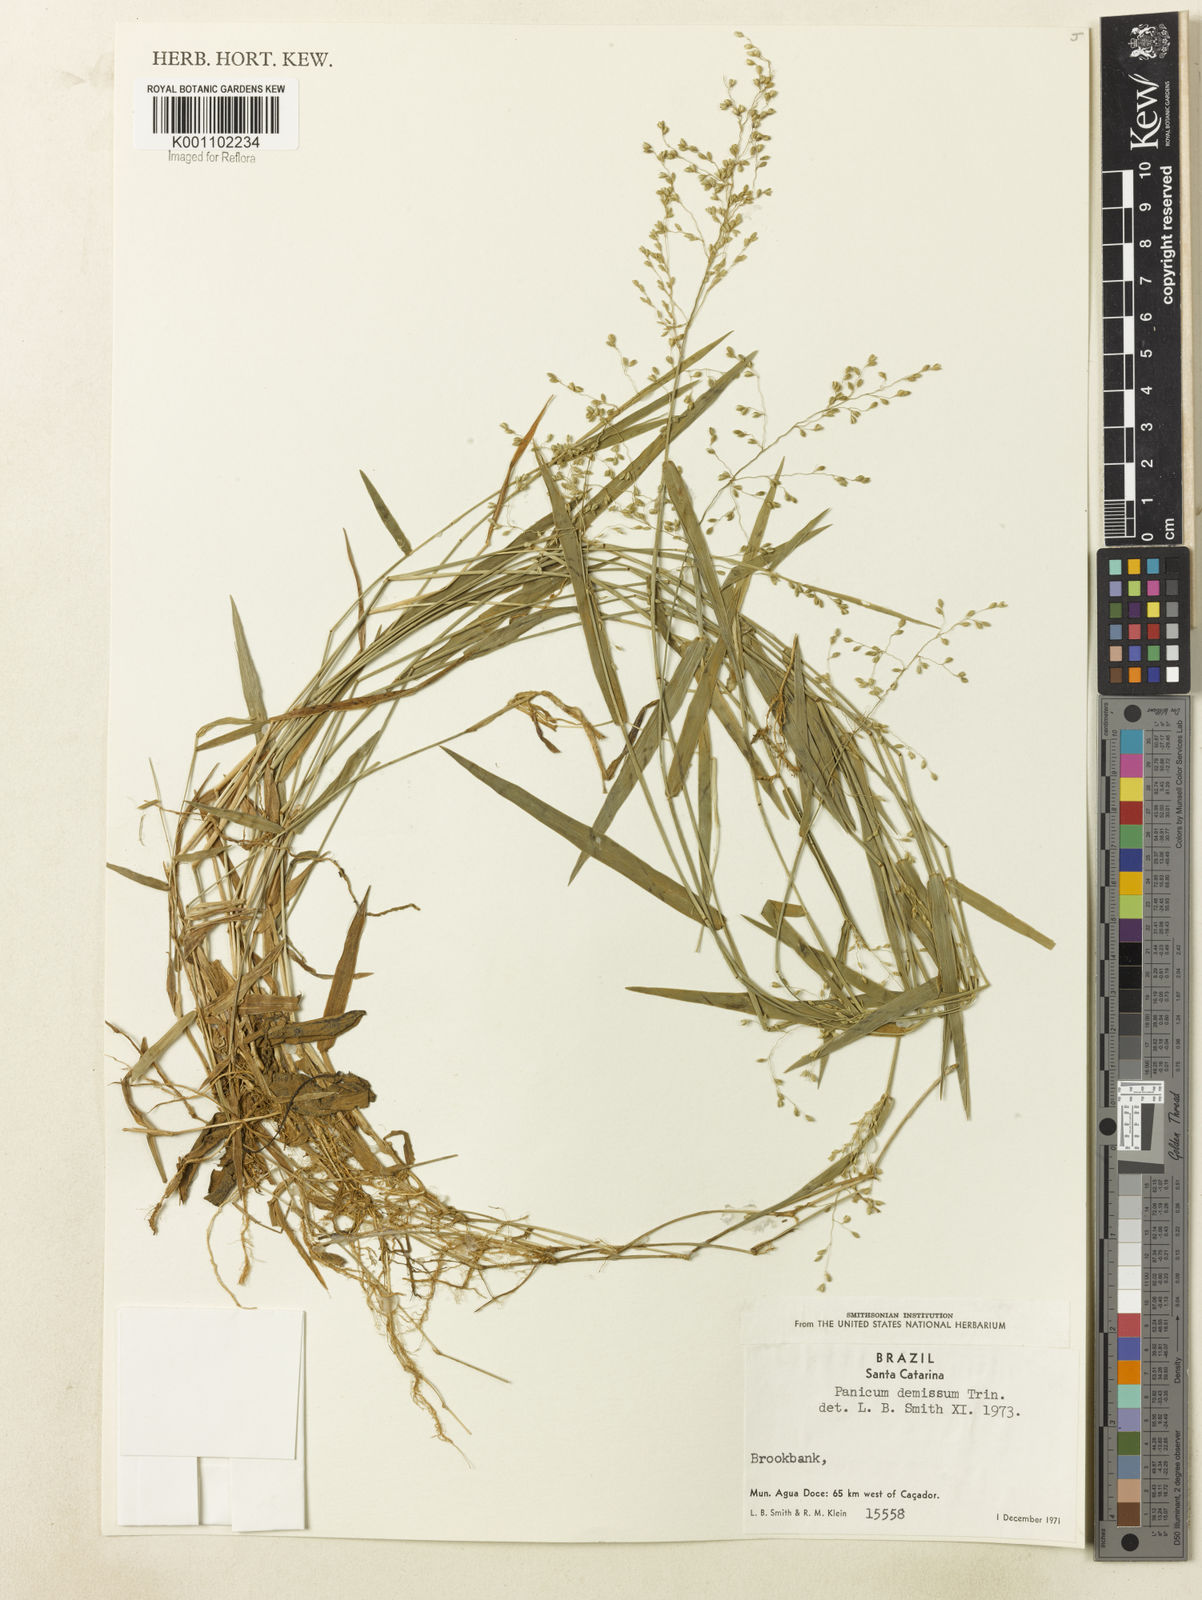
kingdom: Plantae
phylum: Tracheophyta
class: Liliopsida
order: Poales
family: Poaceae
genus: Dichanthelium
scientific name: Dichanthelium sabulorum
